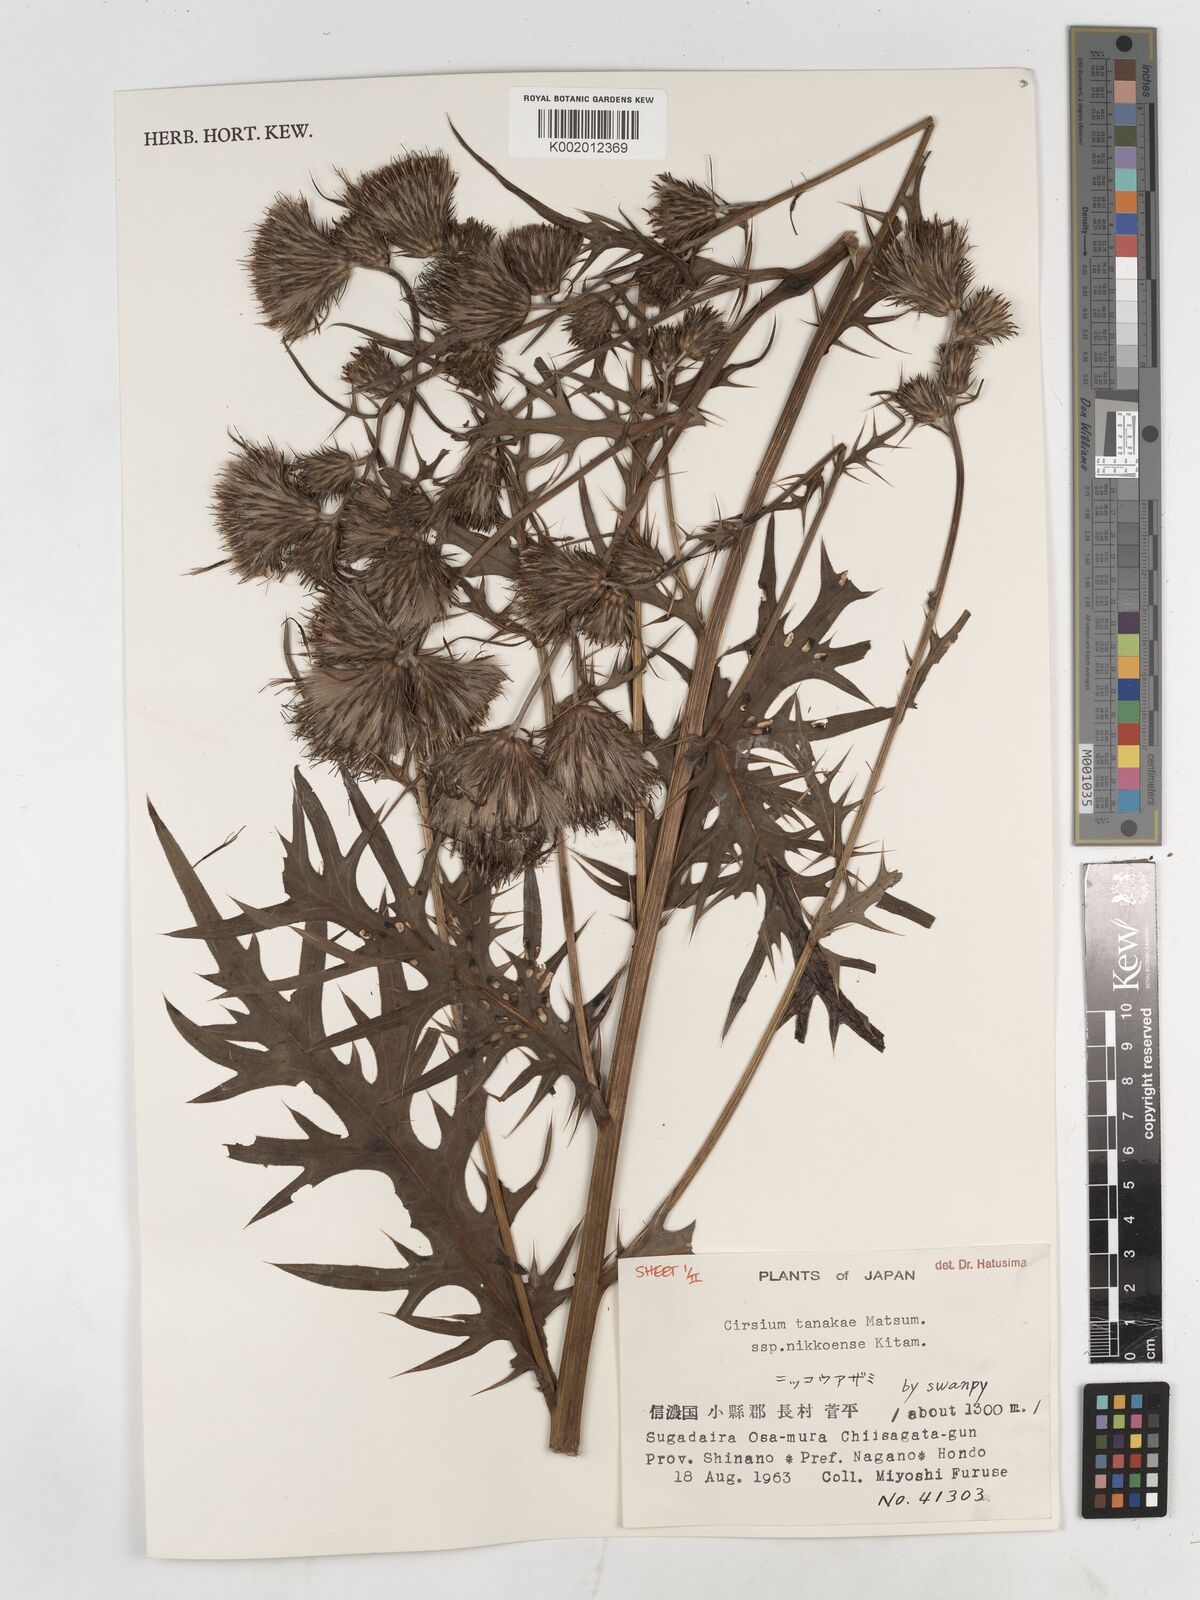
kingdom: Plantae
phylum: Tracheophyta
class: Magnoliopsida
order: Asterales
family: Asteraceae
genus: Cirsium
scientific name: Cirsium nipponicum
